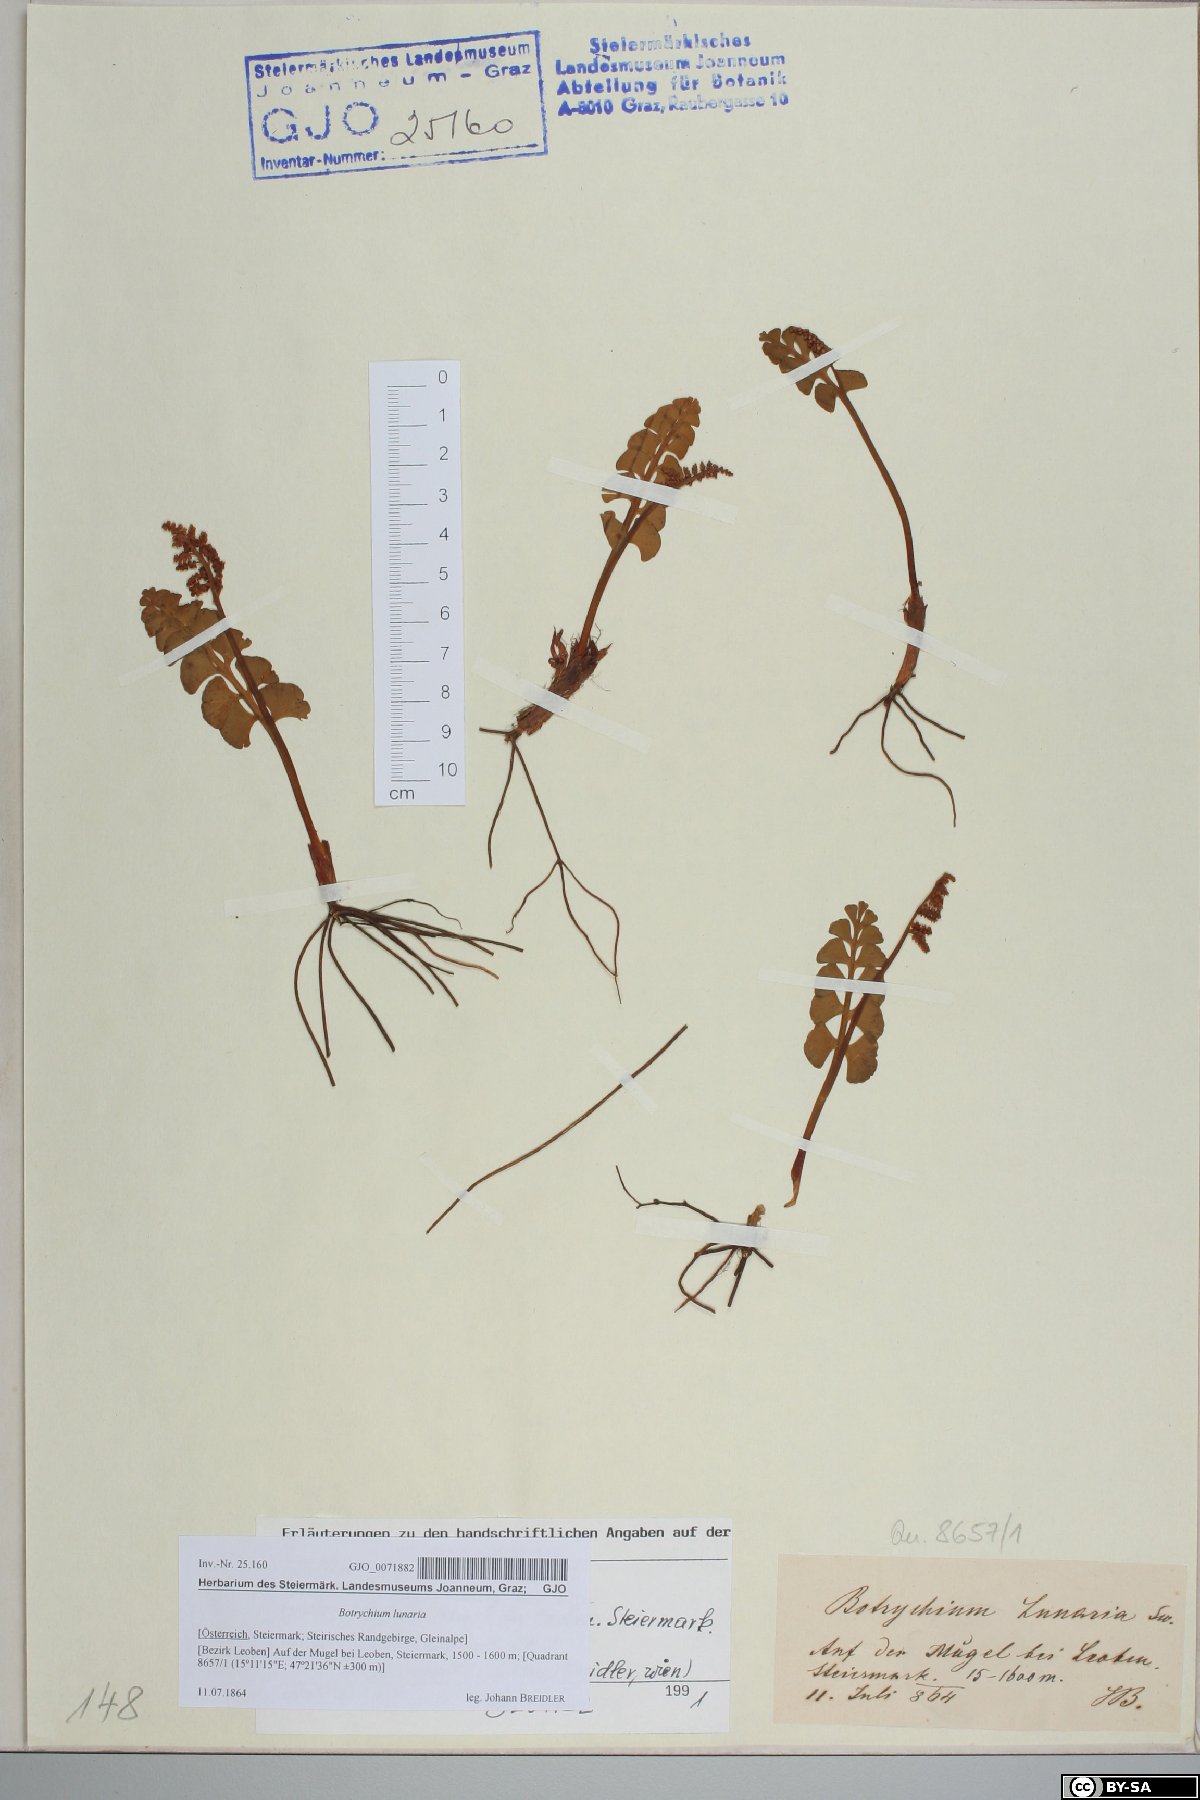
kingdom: Plantae
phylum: Tracheophyta
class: Polypodiopsida
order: Ophioglossales
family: Ophioglossaceae
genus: Botrychium
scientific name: Botrychium lunaria
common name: Moonwort
